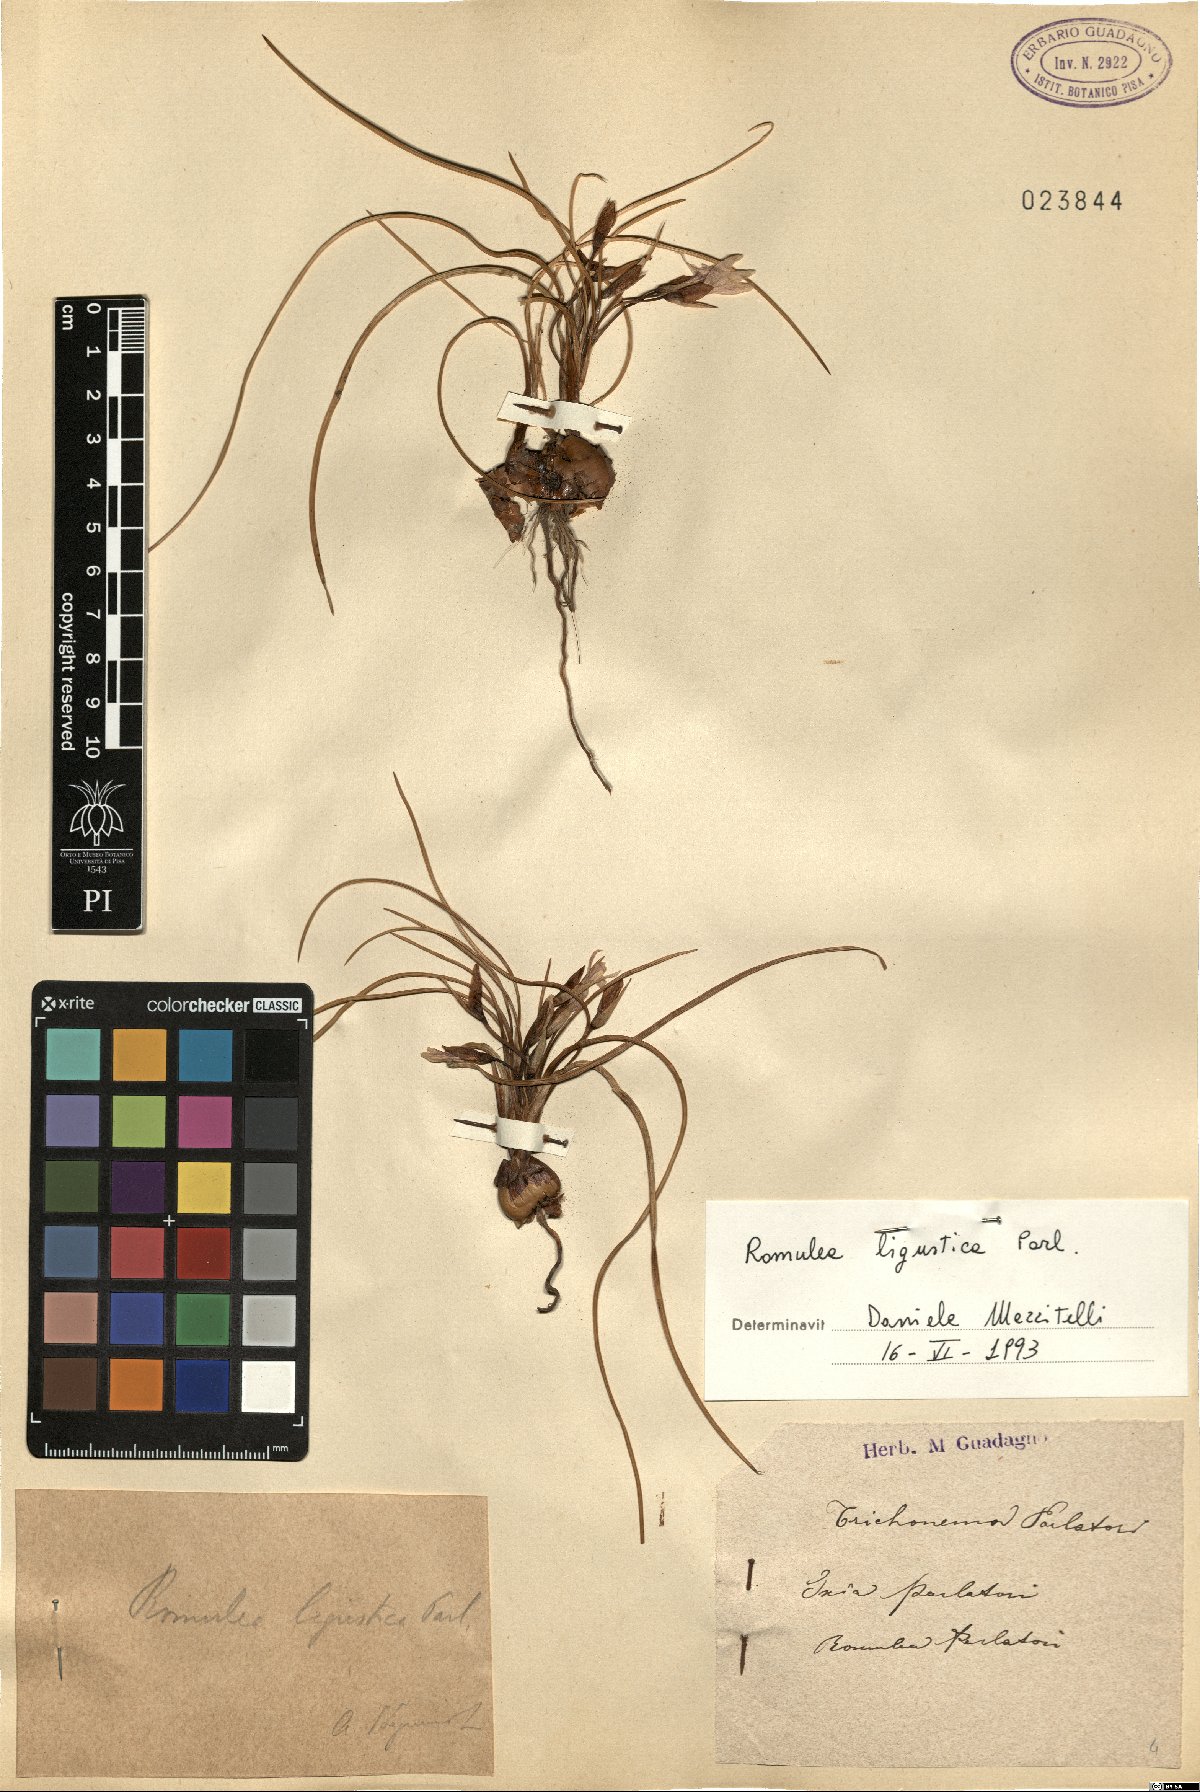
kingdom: Plantae
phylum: Tracheophyta
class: Liliopsida
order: Asparagales
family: Iridaceae
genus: Romulea
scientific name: Romulea ligustica
